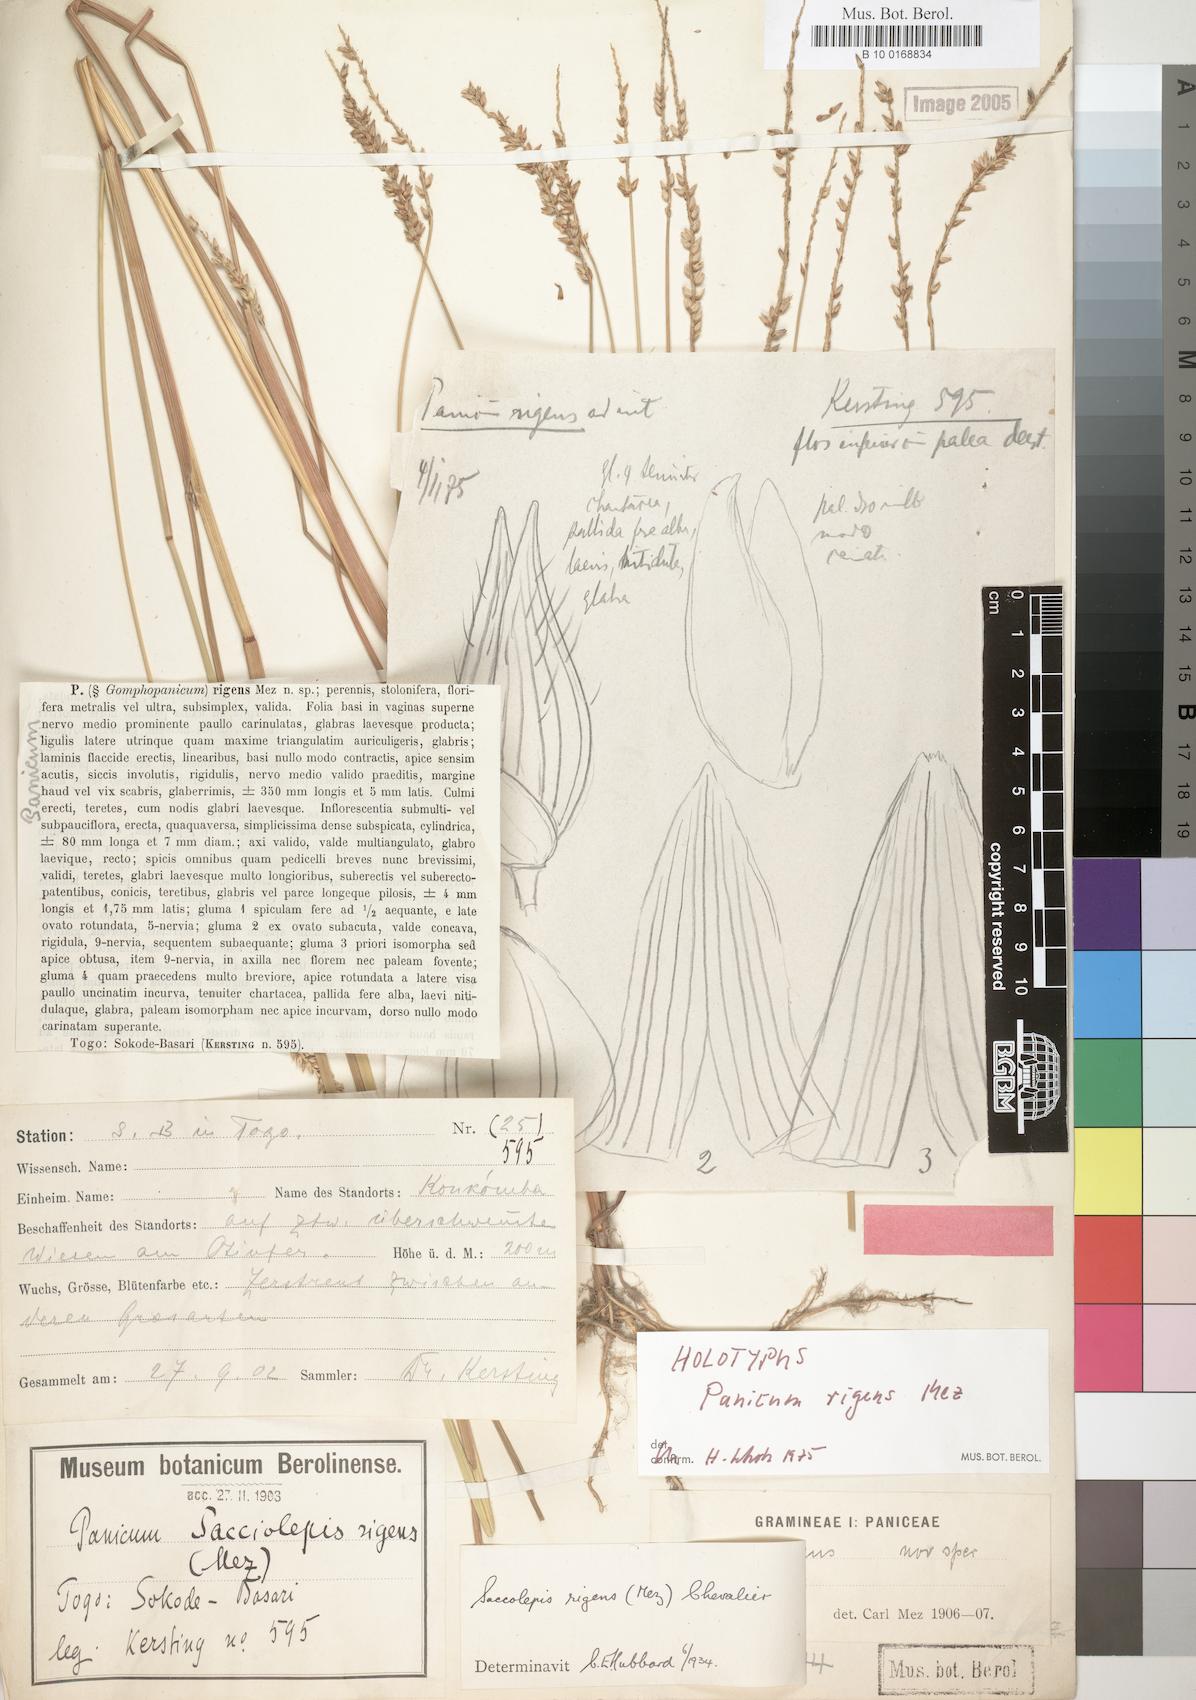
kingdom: Plantae
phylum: Tracheophyta
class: Liliopsida
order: Poales
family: Poaceae
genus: Sacciolepis
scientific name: Sacciolepis leptorrhachis
